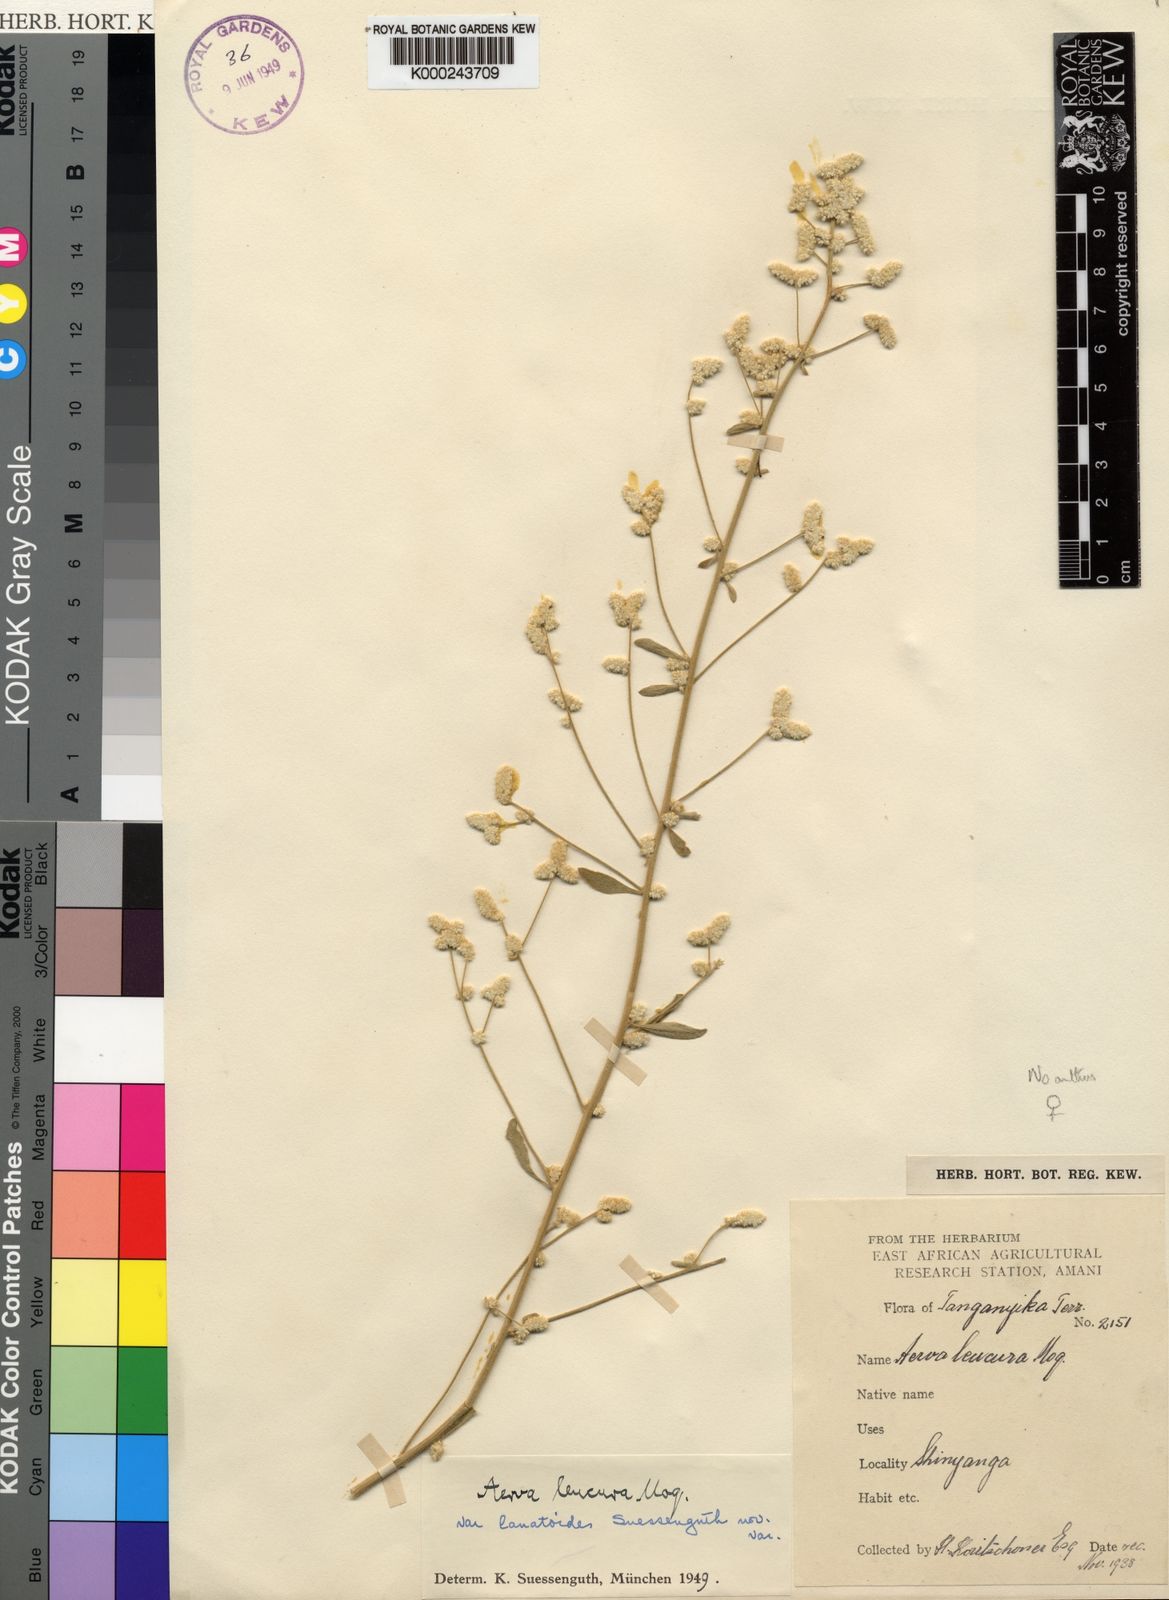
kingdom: Plantae
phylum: Tracheophyta
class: Magnoliopsida
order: Caryophyllales
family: Amaranthaceae
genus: Ouret
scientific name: Ouret leucura
